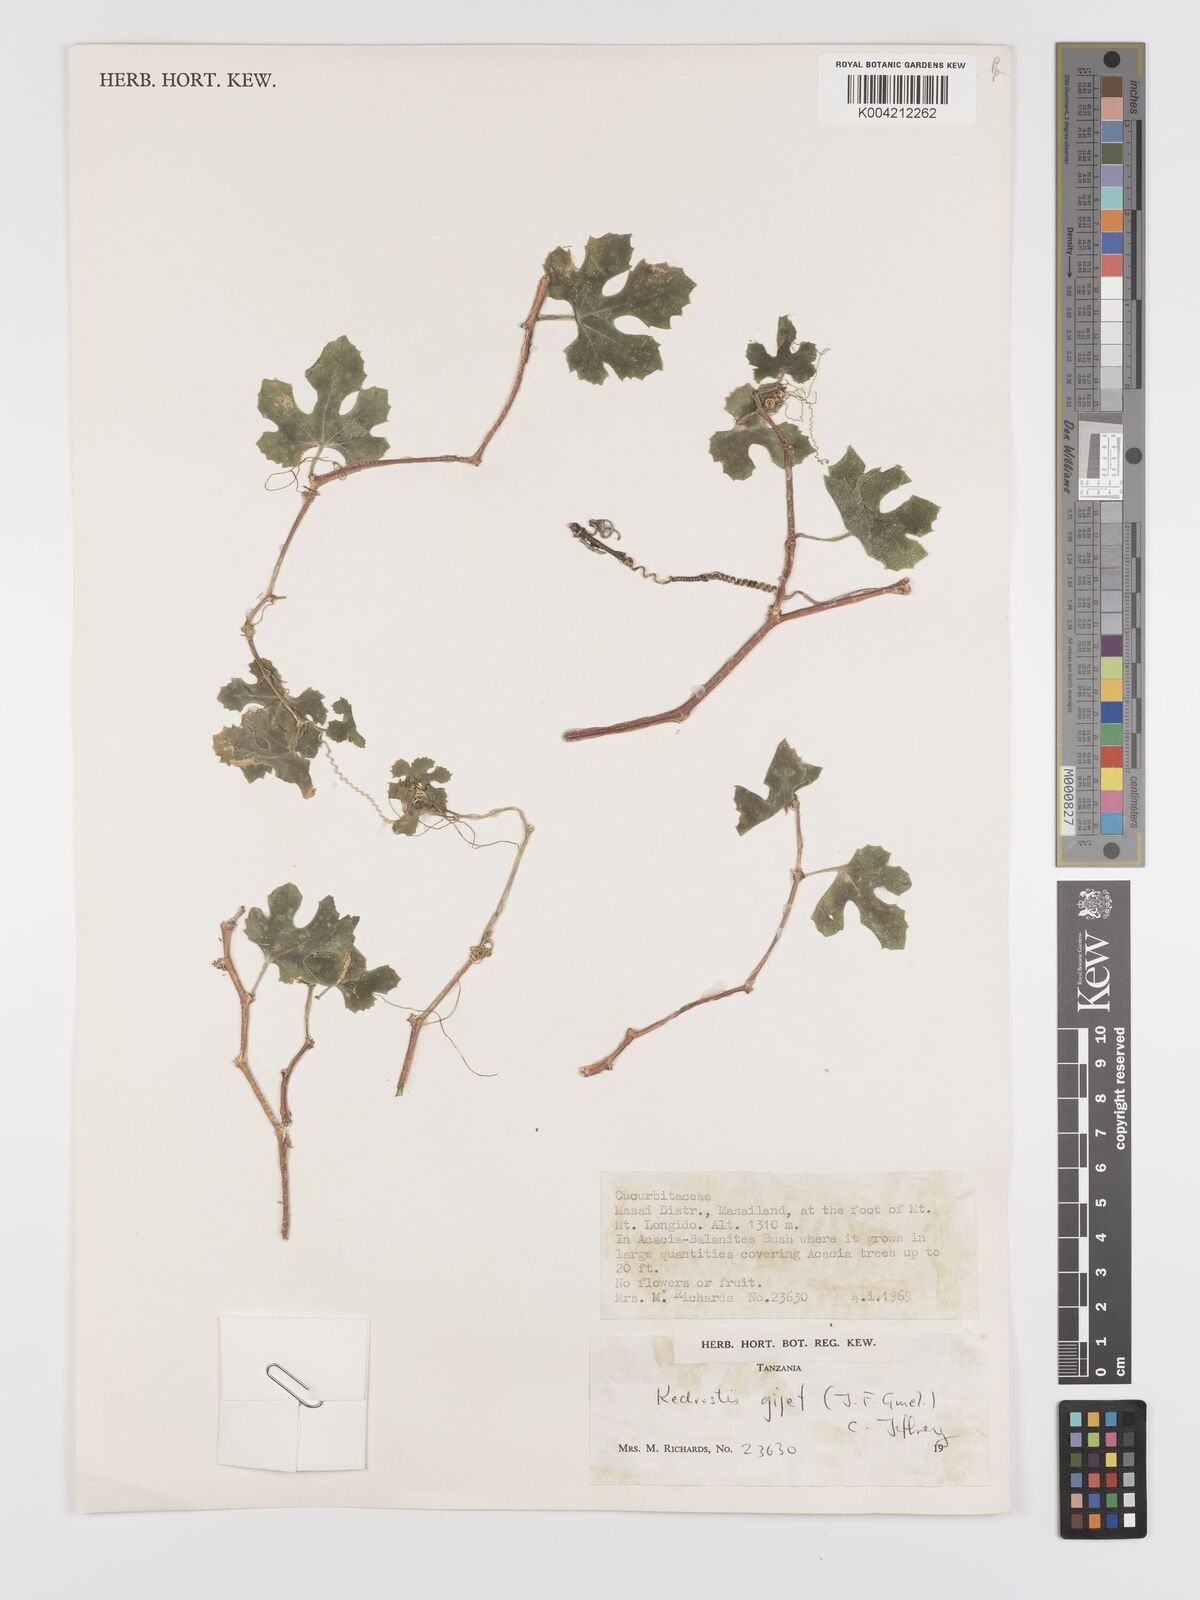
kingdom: Plantae
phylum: Tracheophyta
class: Magnoliopsida
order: Cucurbitales
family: Cucurbitaceae
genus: Kedrostis
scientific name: Kedrostis gijef
